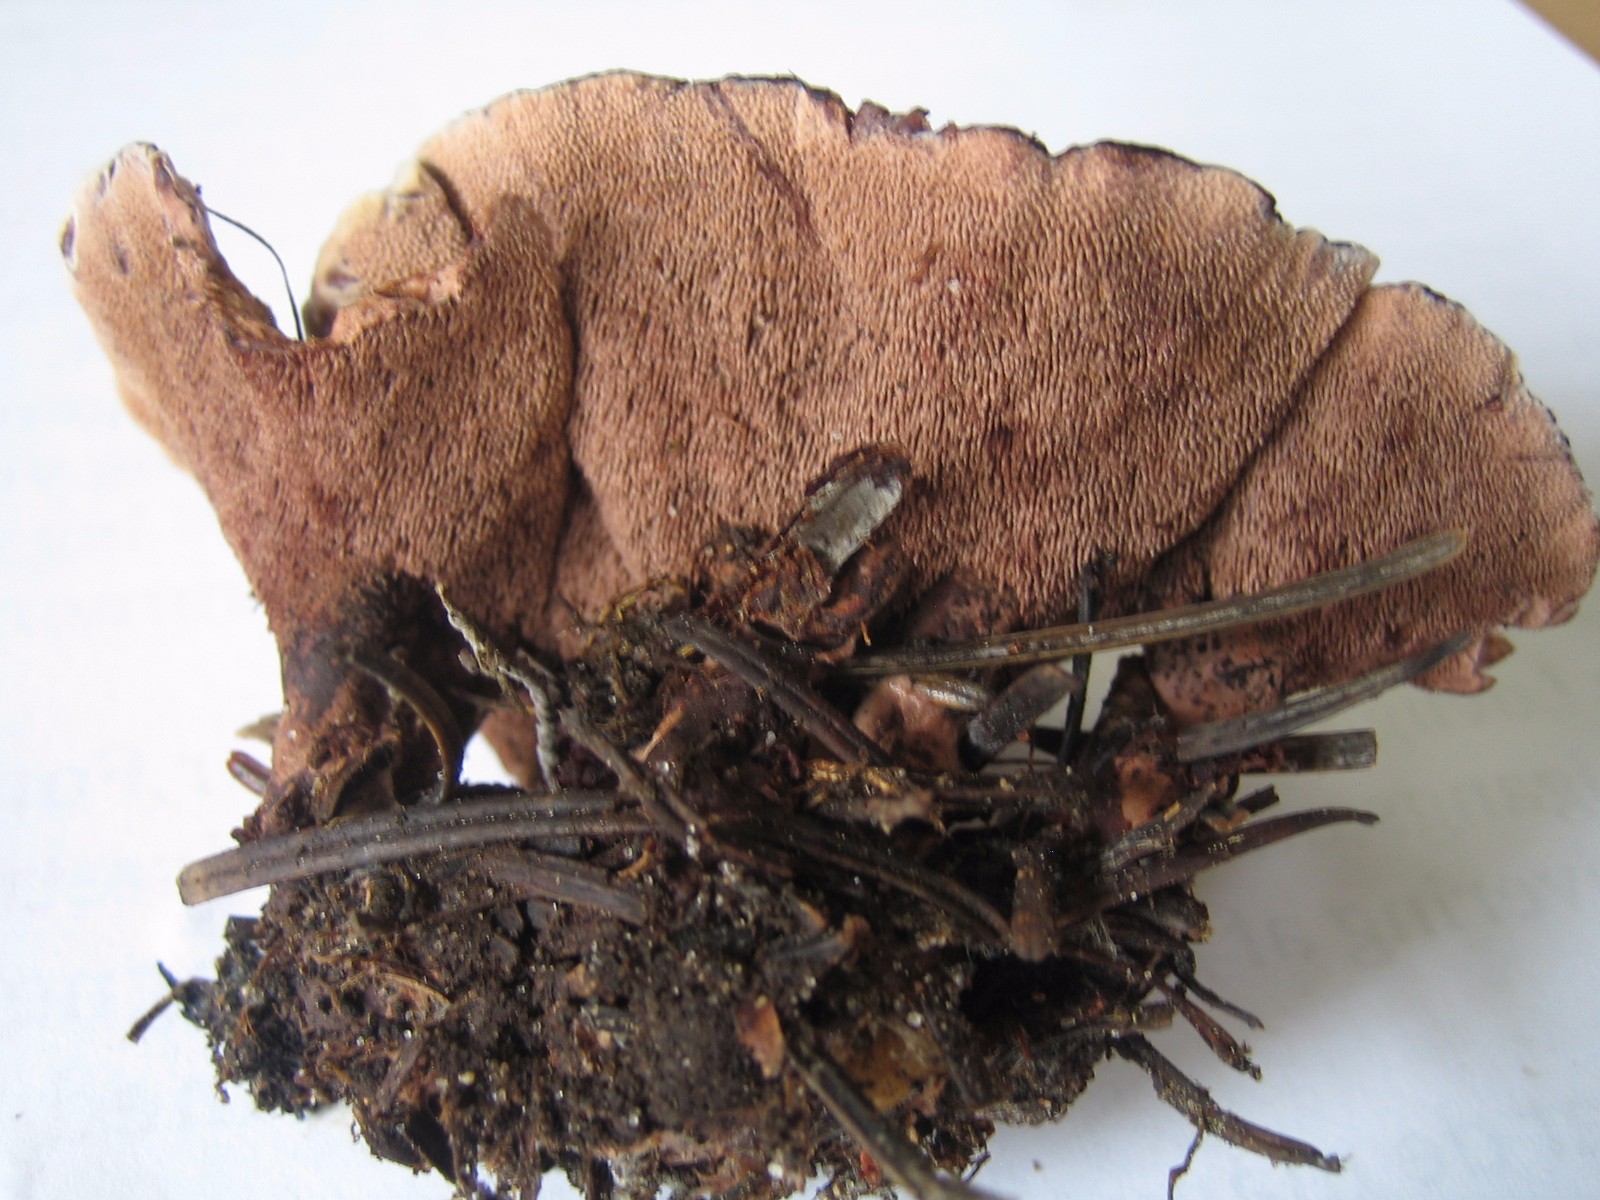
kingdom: Fungi
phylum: Basidiomycota
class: Agaricomycetes
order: Thelephorales
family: Bankeraceae
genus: Hydnellum
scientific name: Hydnellum concrescens
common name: bæltet korkpigsvamp
